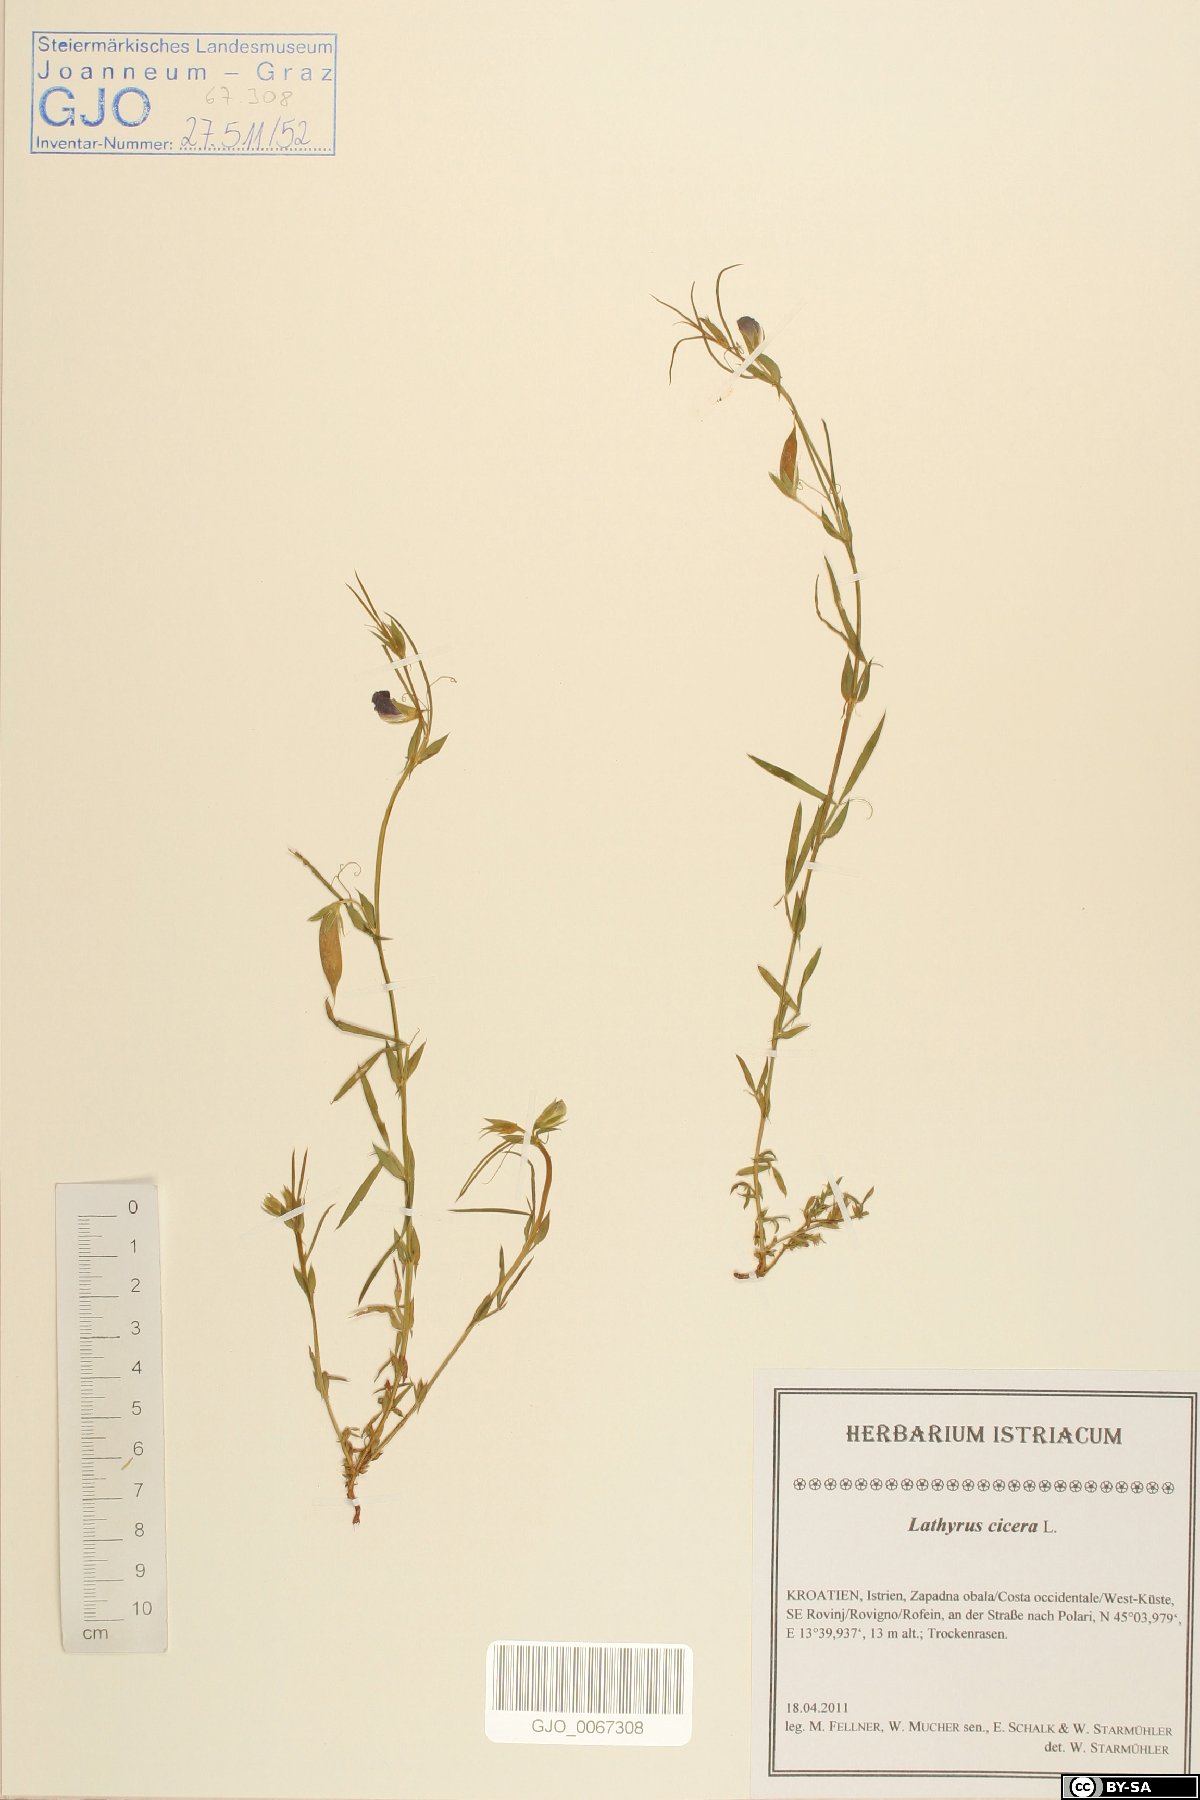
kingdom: Plantae
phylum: Tracheophyta
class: Magnoliopsida
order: Fabales
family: Fabaceae
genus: Lathyrus
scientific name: Lathyrus cicera
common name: Red vetchling
